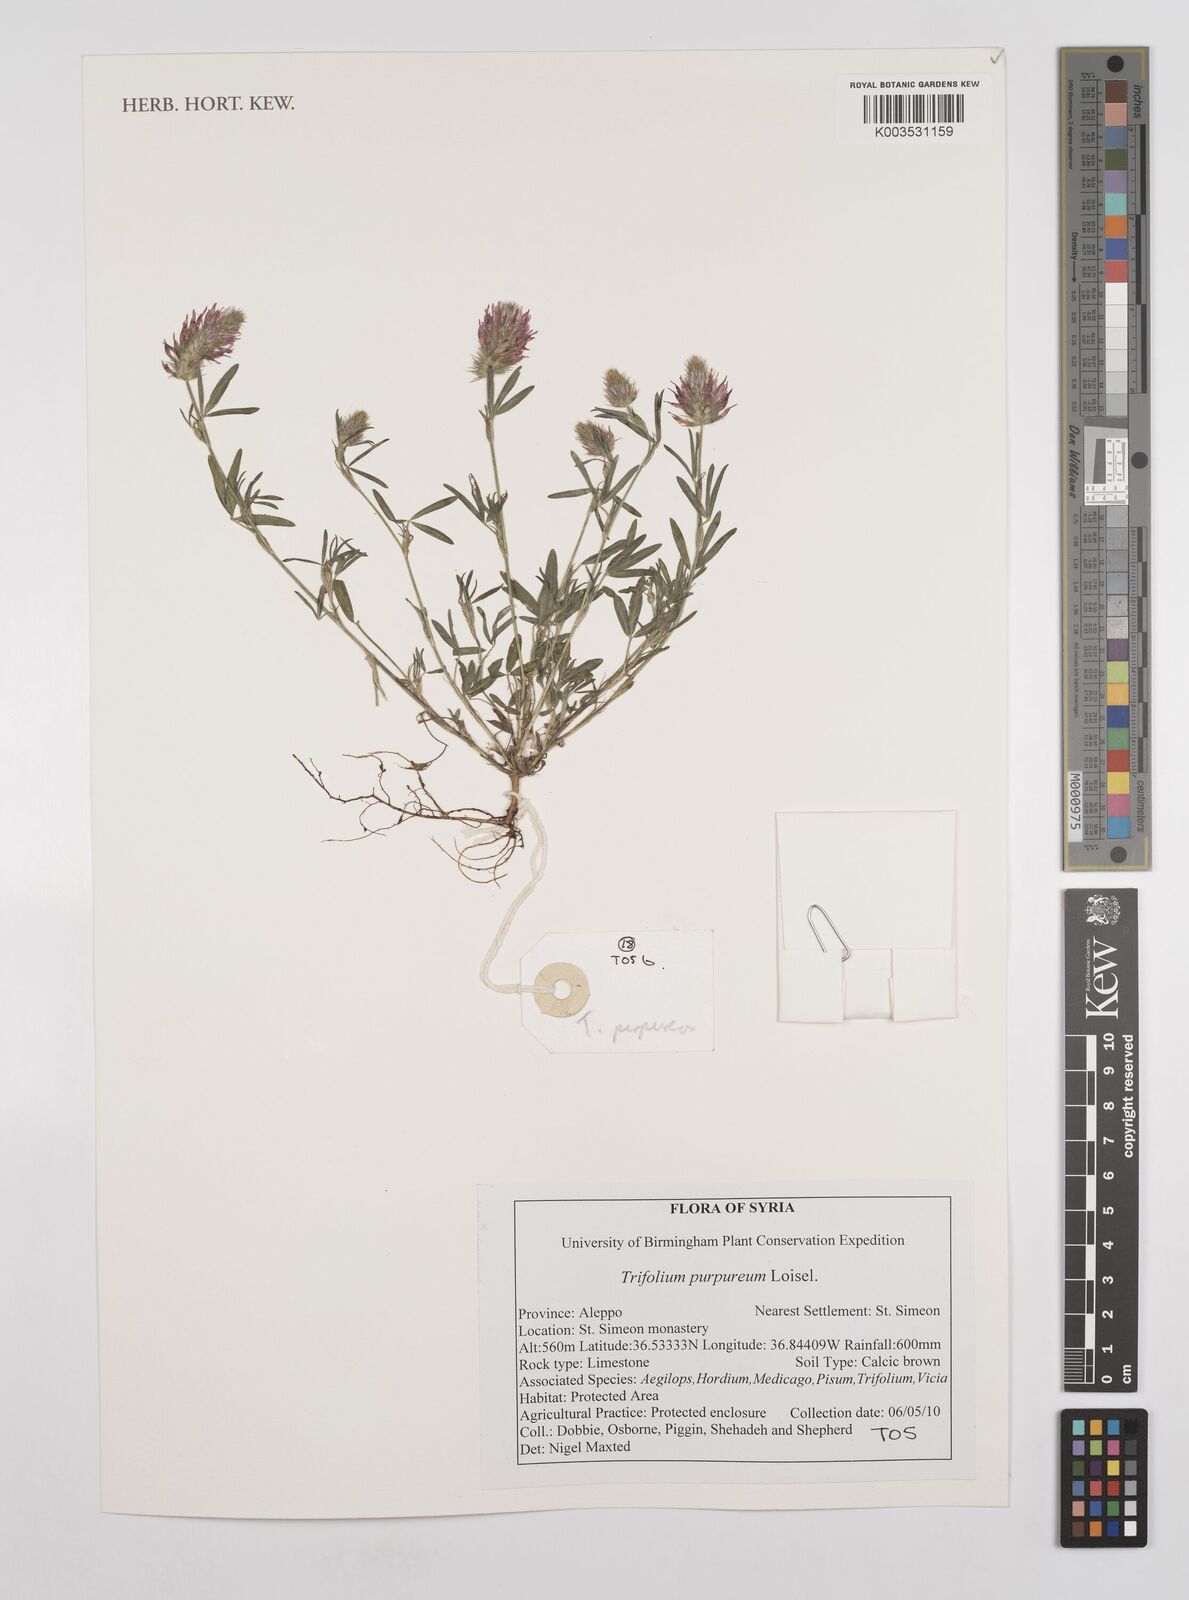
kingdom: Plantae
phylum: Tracheophyta
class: Magnoliopsida
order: Fabales
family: Fabaceae
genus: Trifolium
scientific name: Trifolium purpureum
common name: Purple clover
